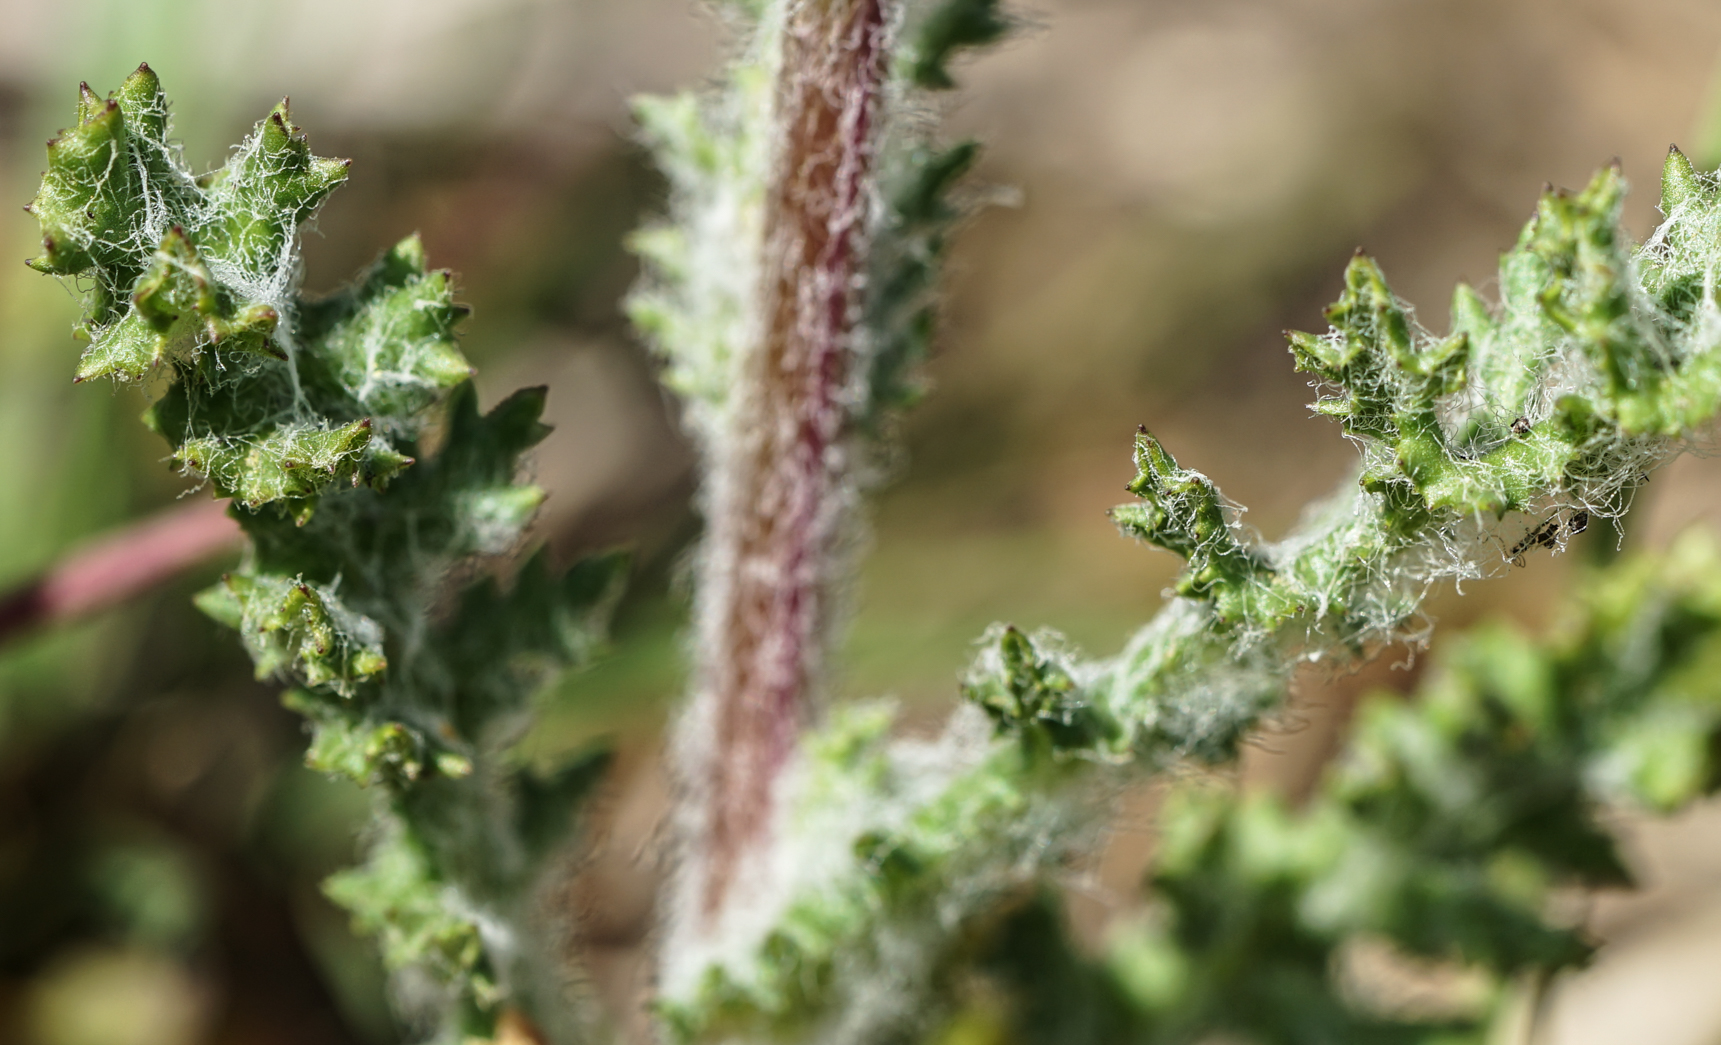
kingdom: Plantae
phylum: Tracheophyta
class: Magnoliopsida
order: Asterales
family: Asteraceae
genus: Senecio
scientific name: Senecio vernalis
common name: Eastern groundsel
